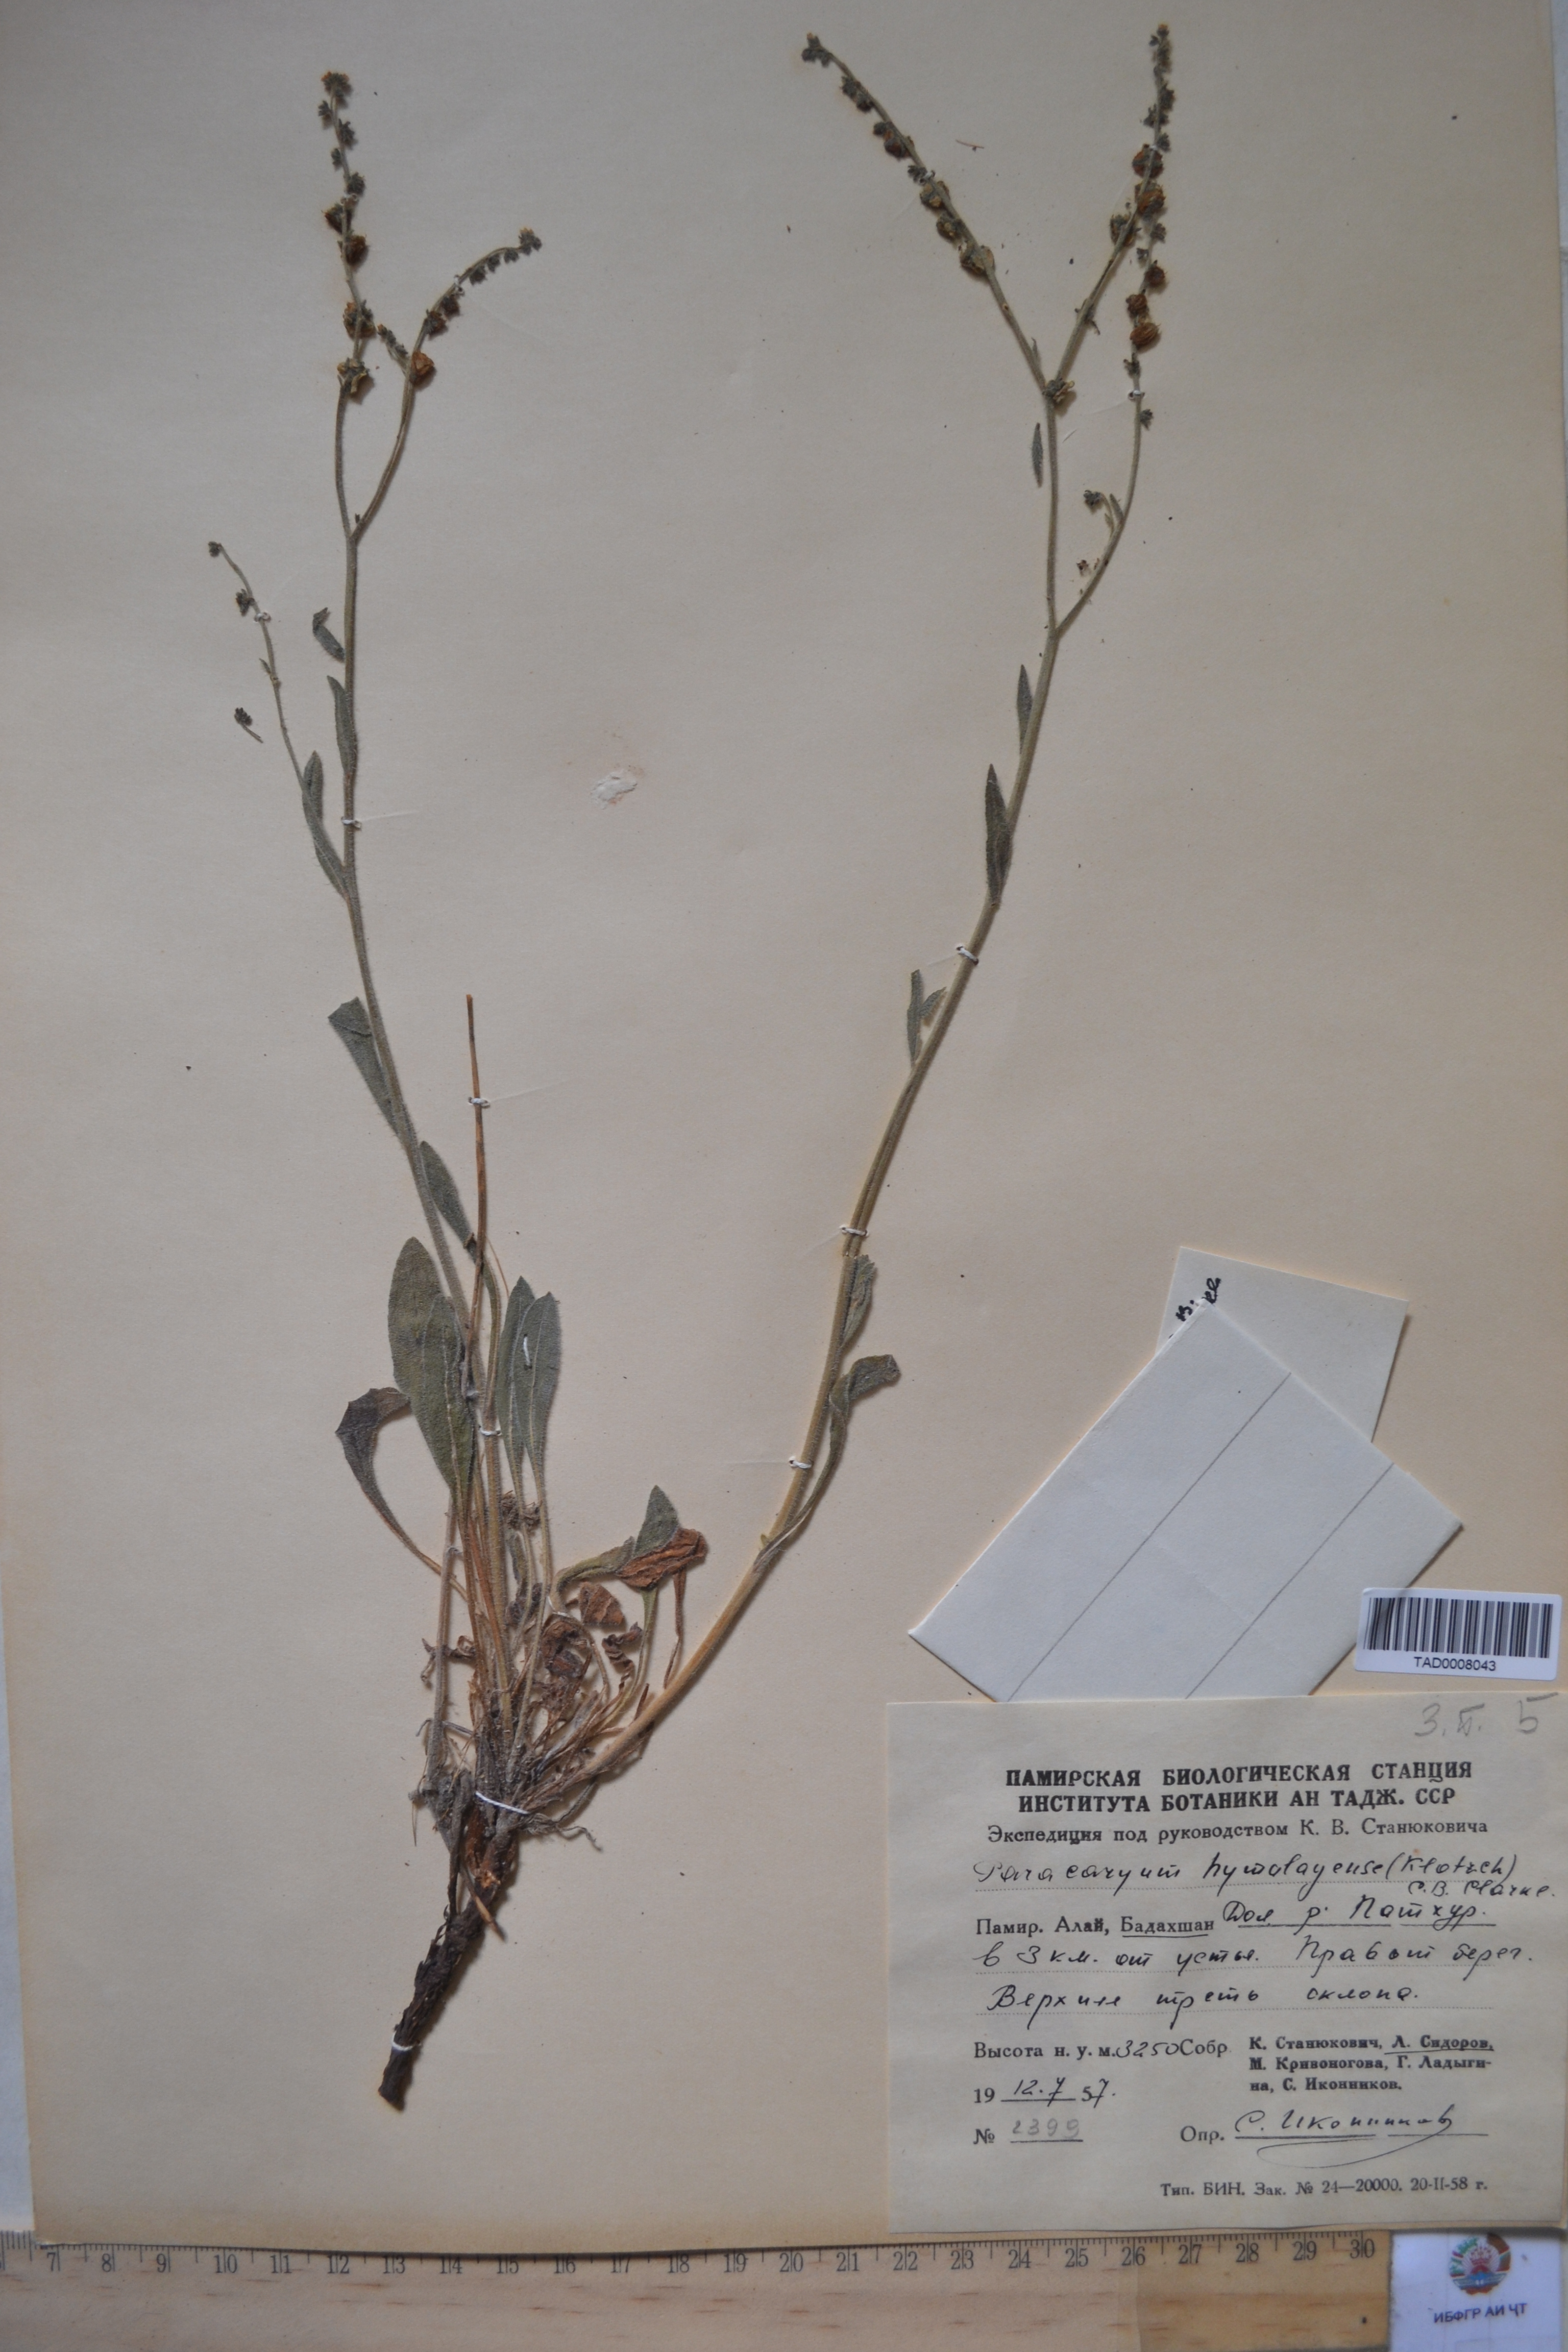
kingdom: Plantae
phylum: Tracheophyta
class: Magnoliopsida
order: Boraginales
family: Boraginaceae
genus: Paracaryum
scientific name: Paracaryum himalayense
